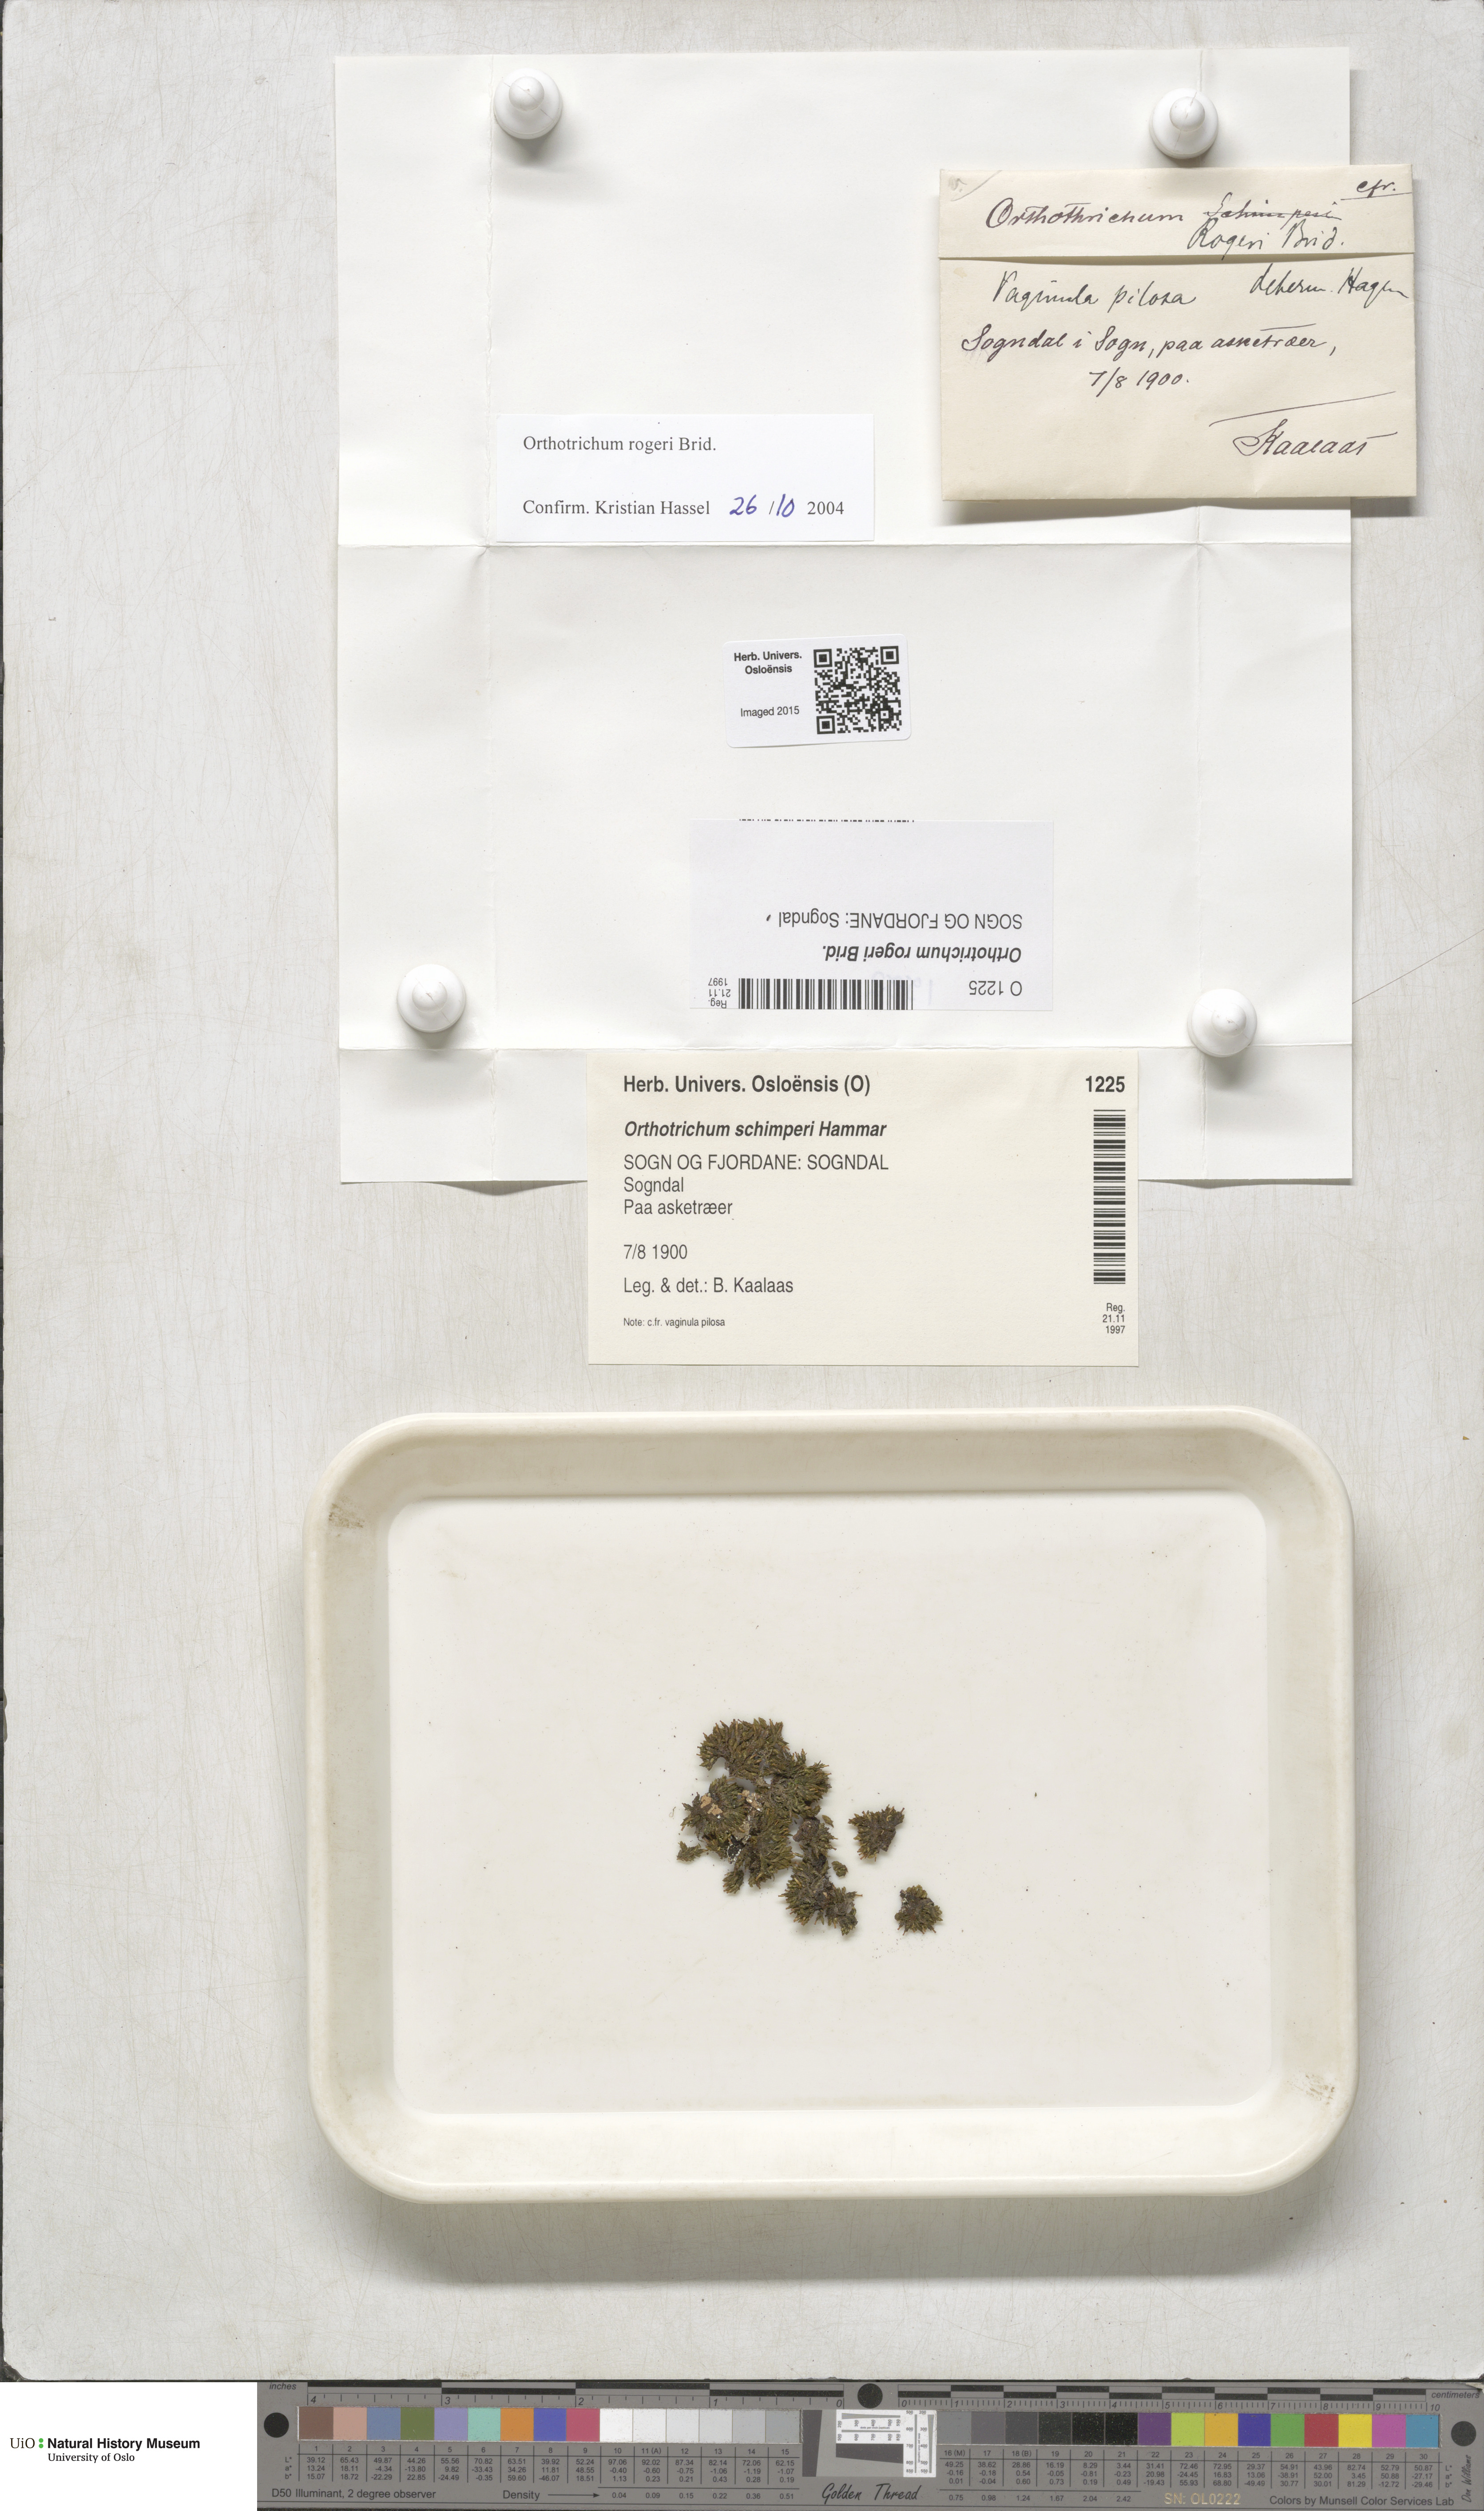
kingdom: Plantae
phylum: Bryophyta
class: Bryopsida
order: Orthotrichales
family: Orthotrichaceae
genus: Orthotrichum
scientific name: Orthotrichum rogeri
